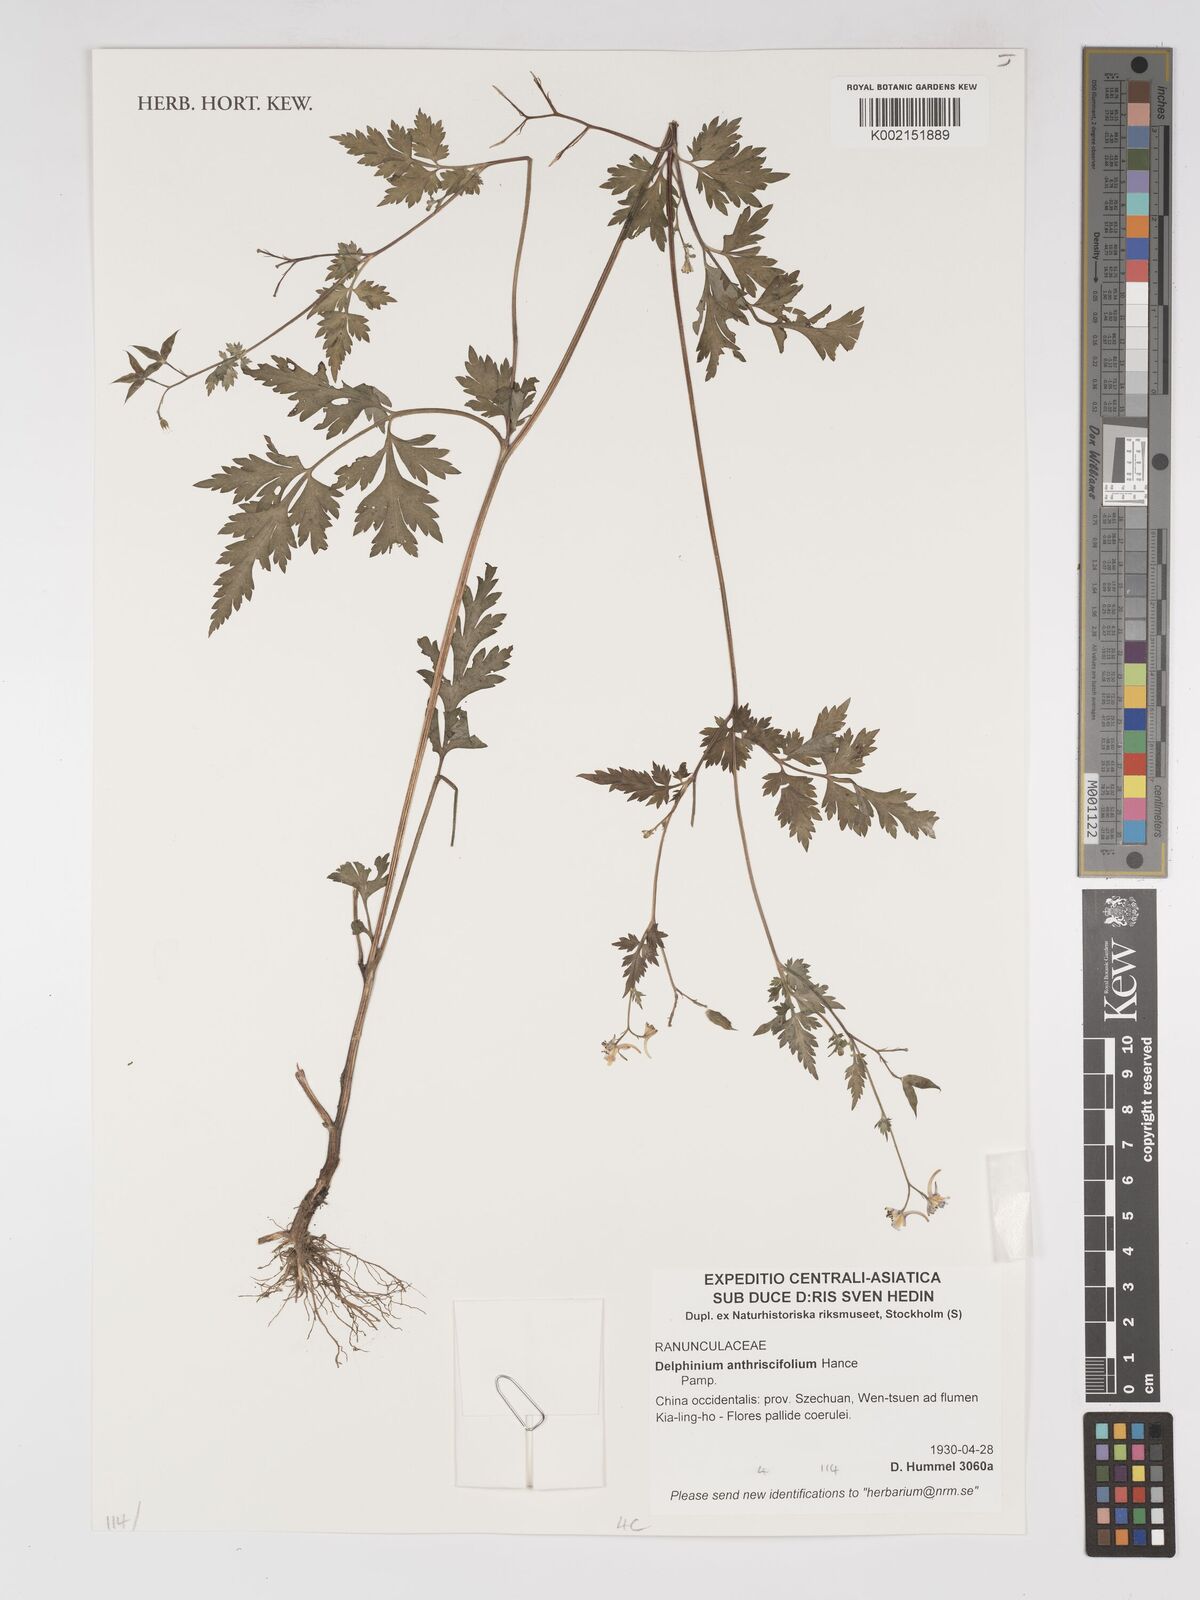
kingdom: Plantae
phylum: Tracheophyta
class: Magnoliopsida
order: Ranunculales
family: Ranunculaceae
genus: Delphinium
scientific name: Delphinium anthriscifolium
